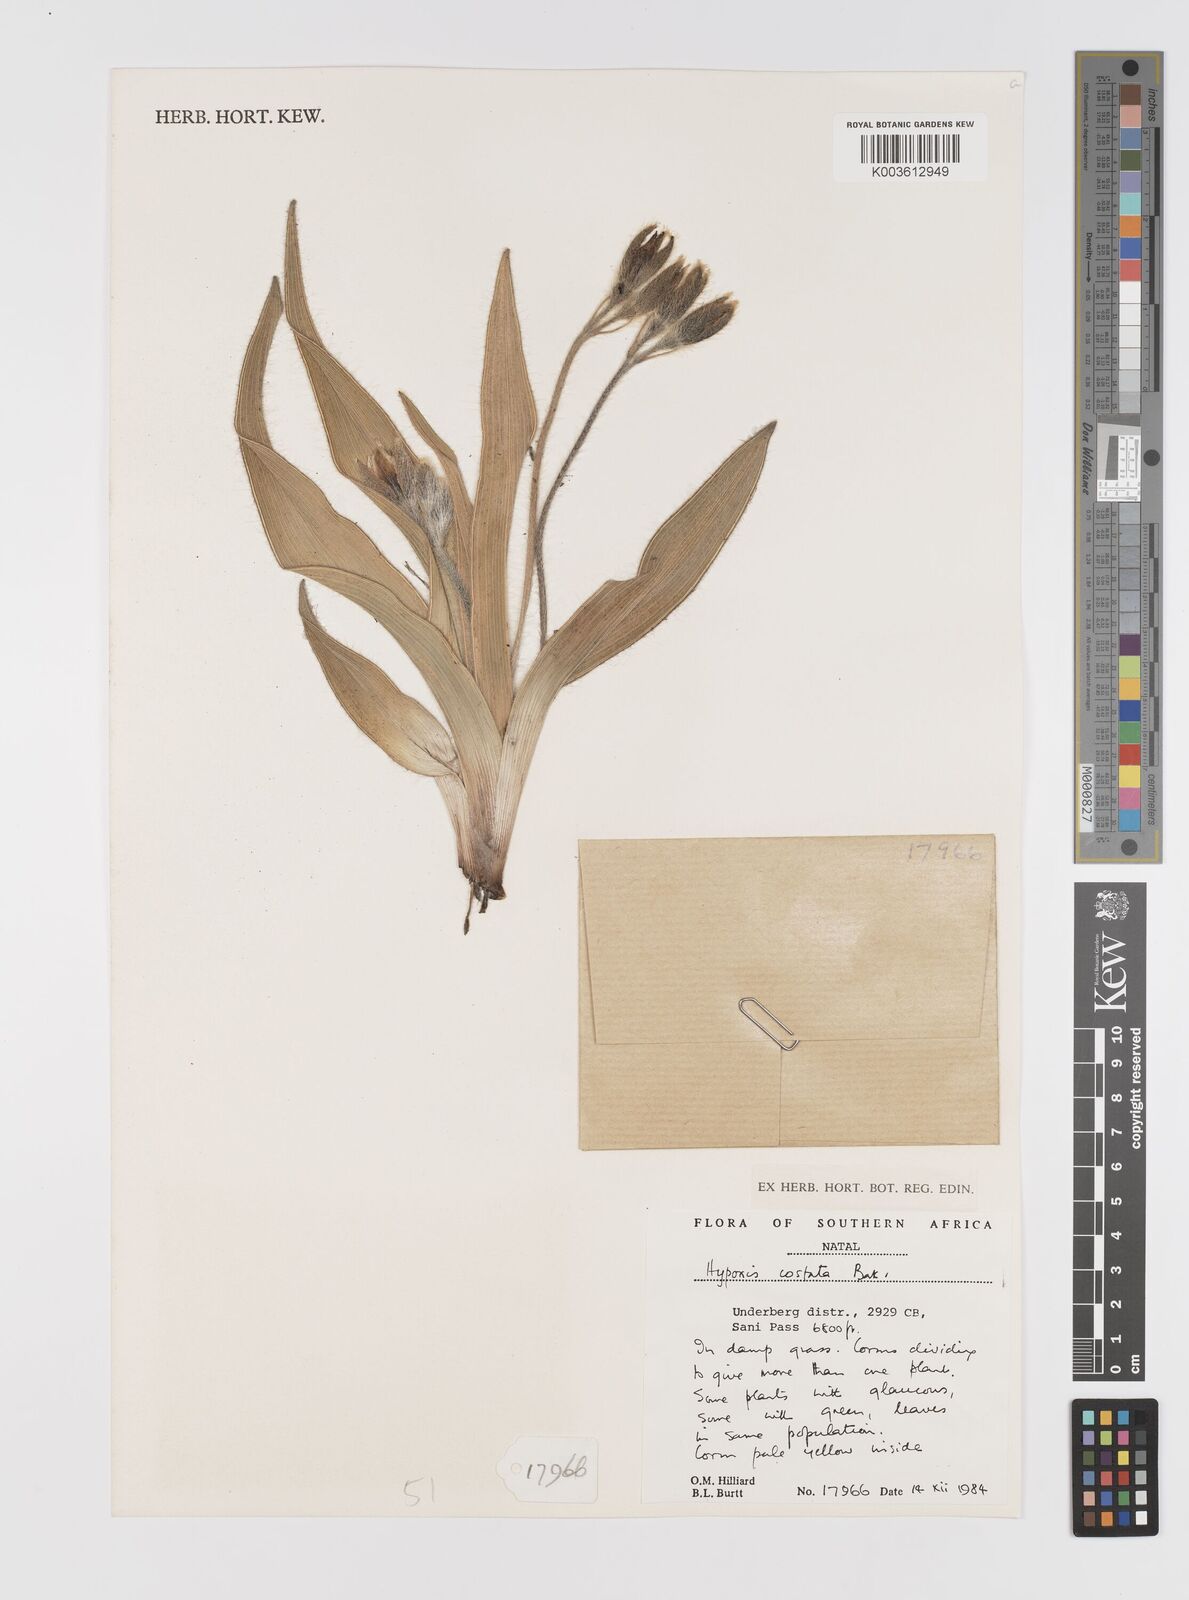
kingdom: Plantae
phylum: Tracheophyta
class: Liliopsida
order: Asparagales
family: Hypoxidaceae
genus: Hypoxis
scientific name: Hypoxis costata
